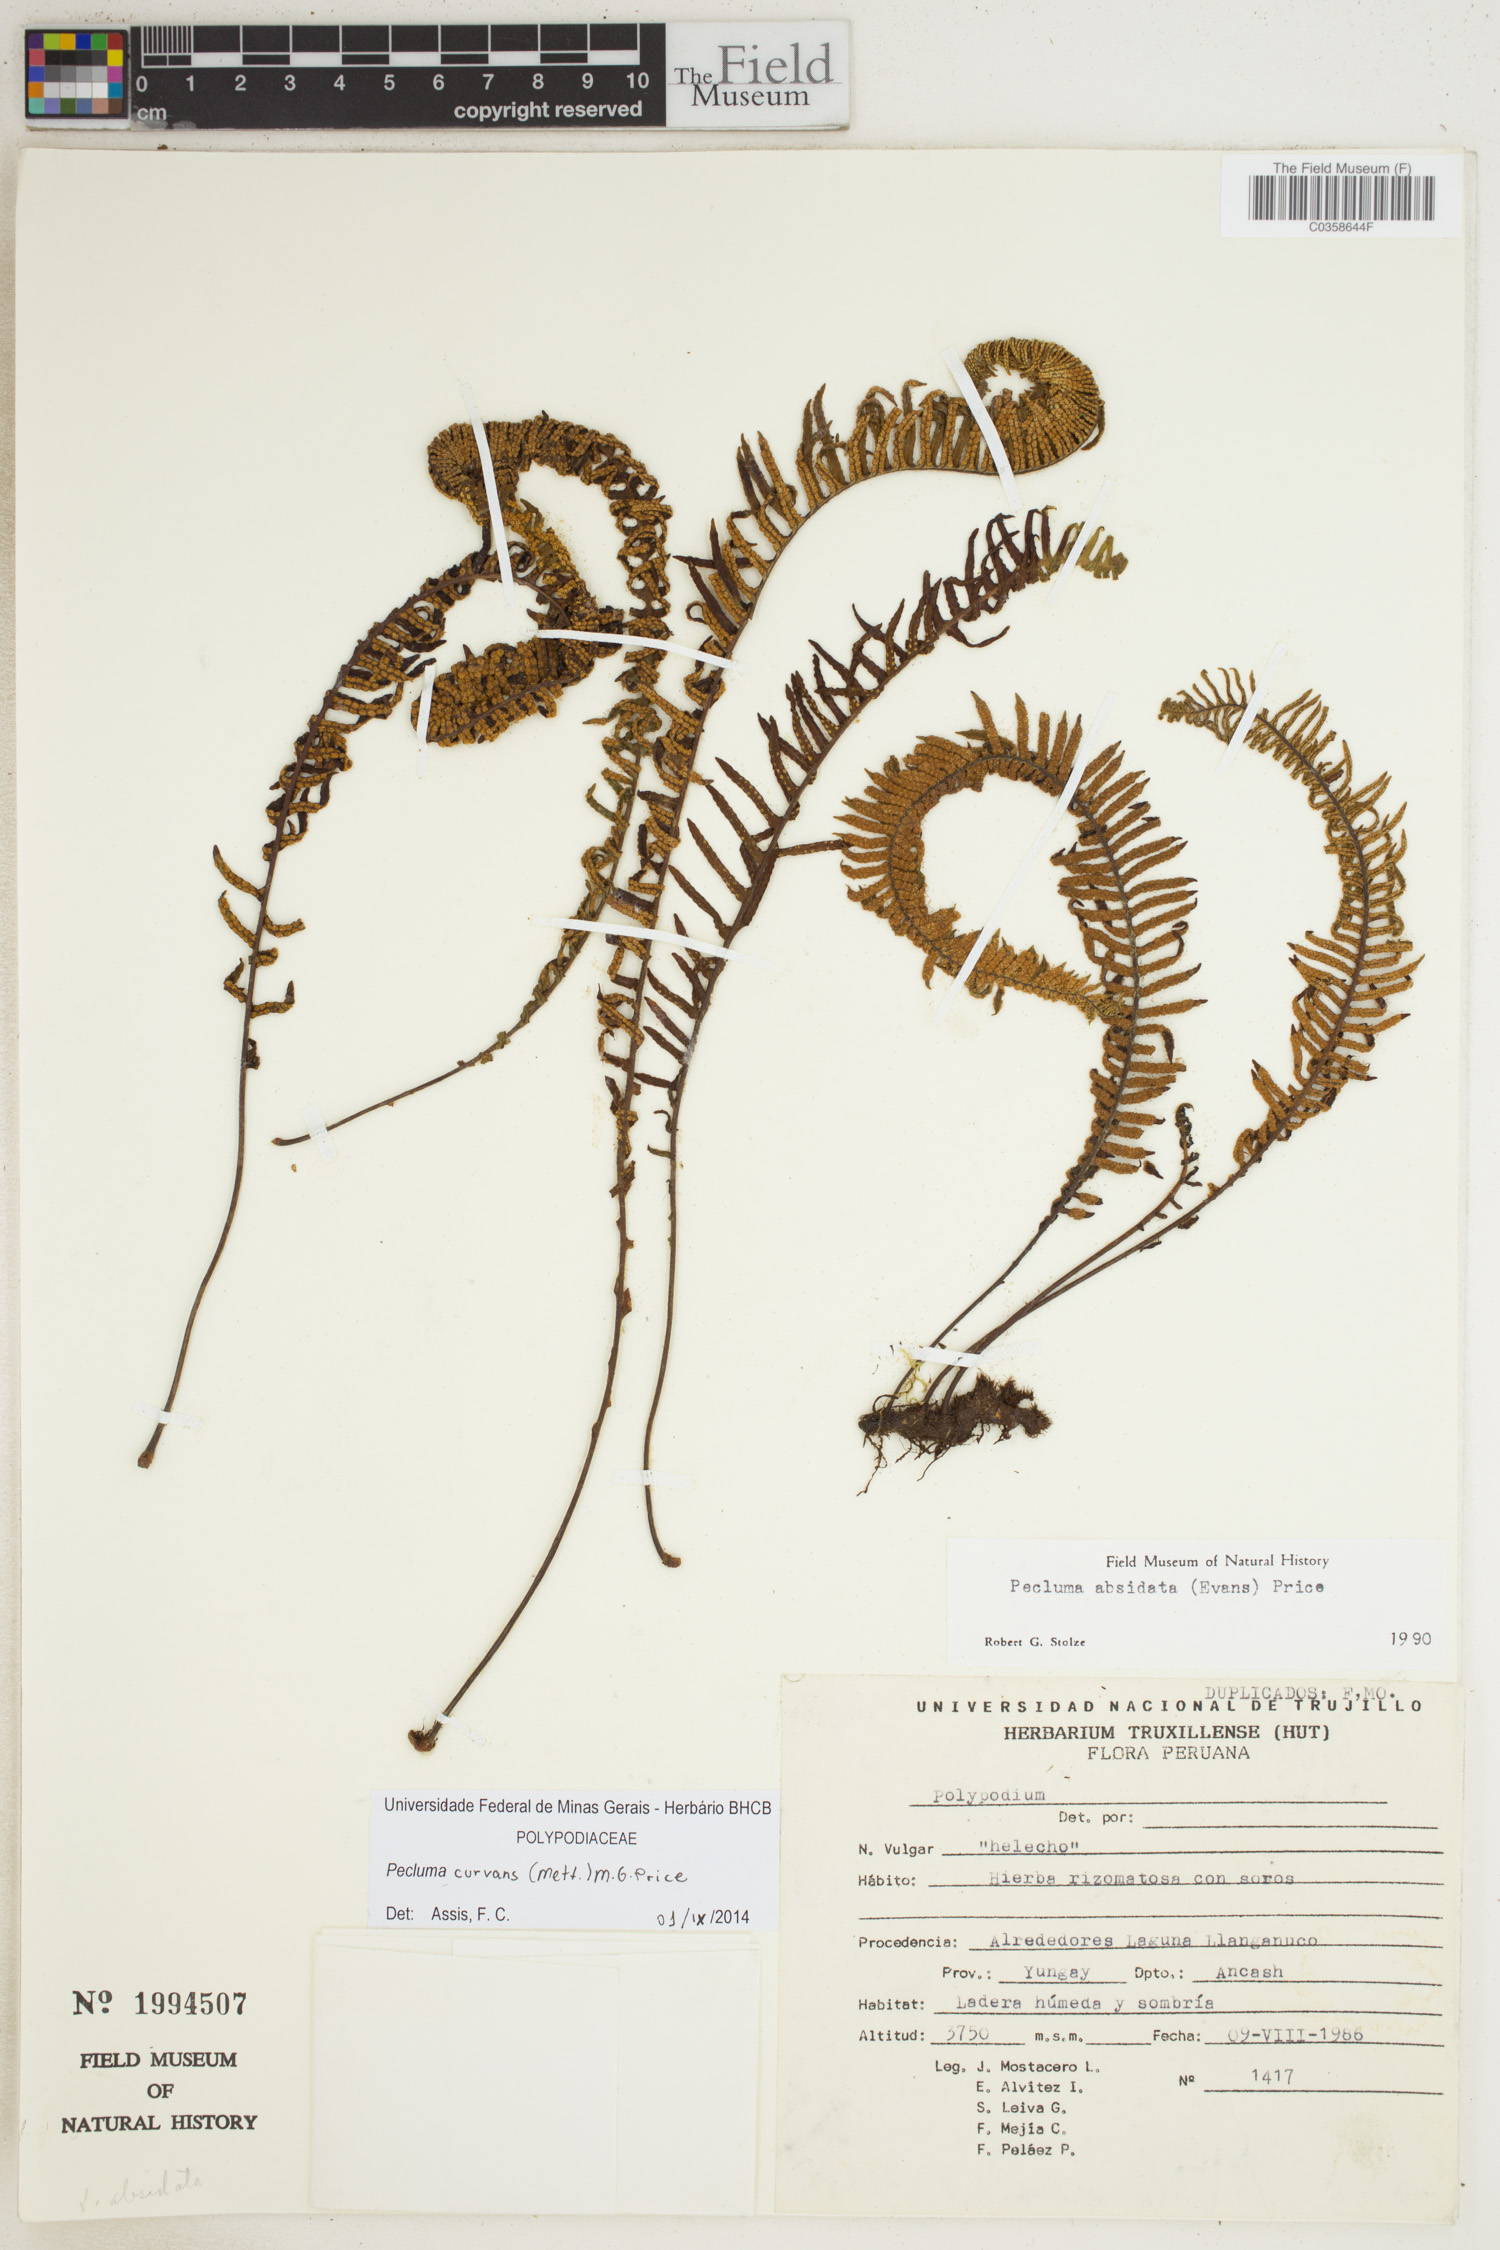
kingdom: Plantae
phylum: Tracheophyta
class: Polypodiopsida
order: Polypodiales
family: Polypodiaceae
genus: Pecluma
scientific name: Pecluma curvans
